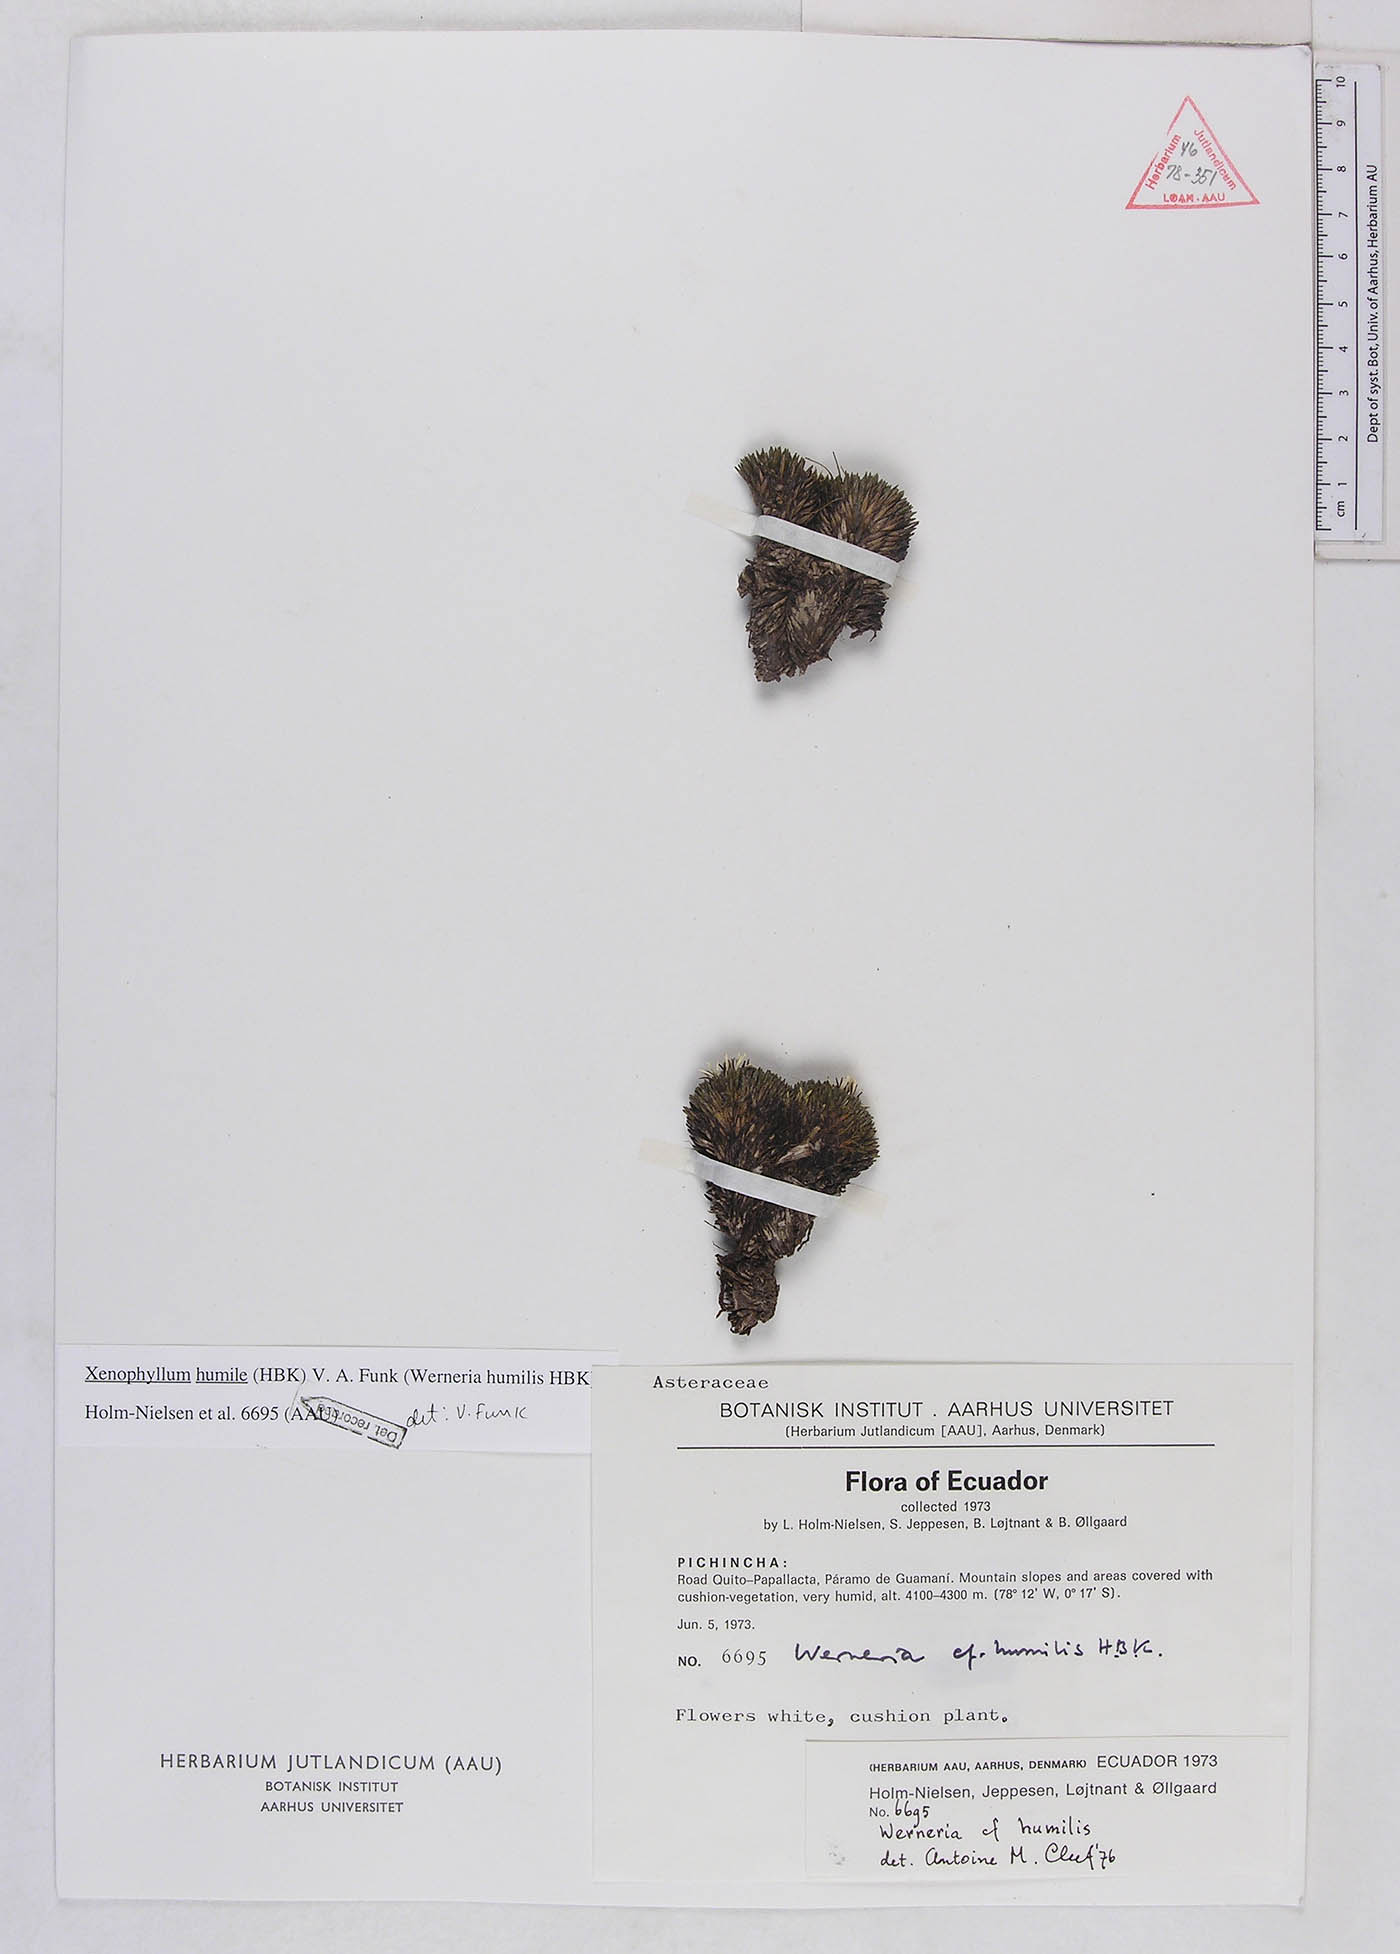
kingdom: Plantae
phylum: Tracheophyta
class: Magnoliopsida
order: Asterales
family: Asteraceae
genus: Werneria
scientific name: Werneria humilis
